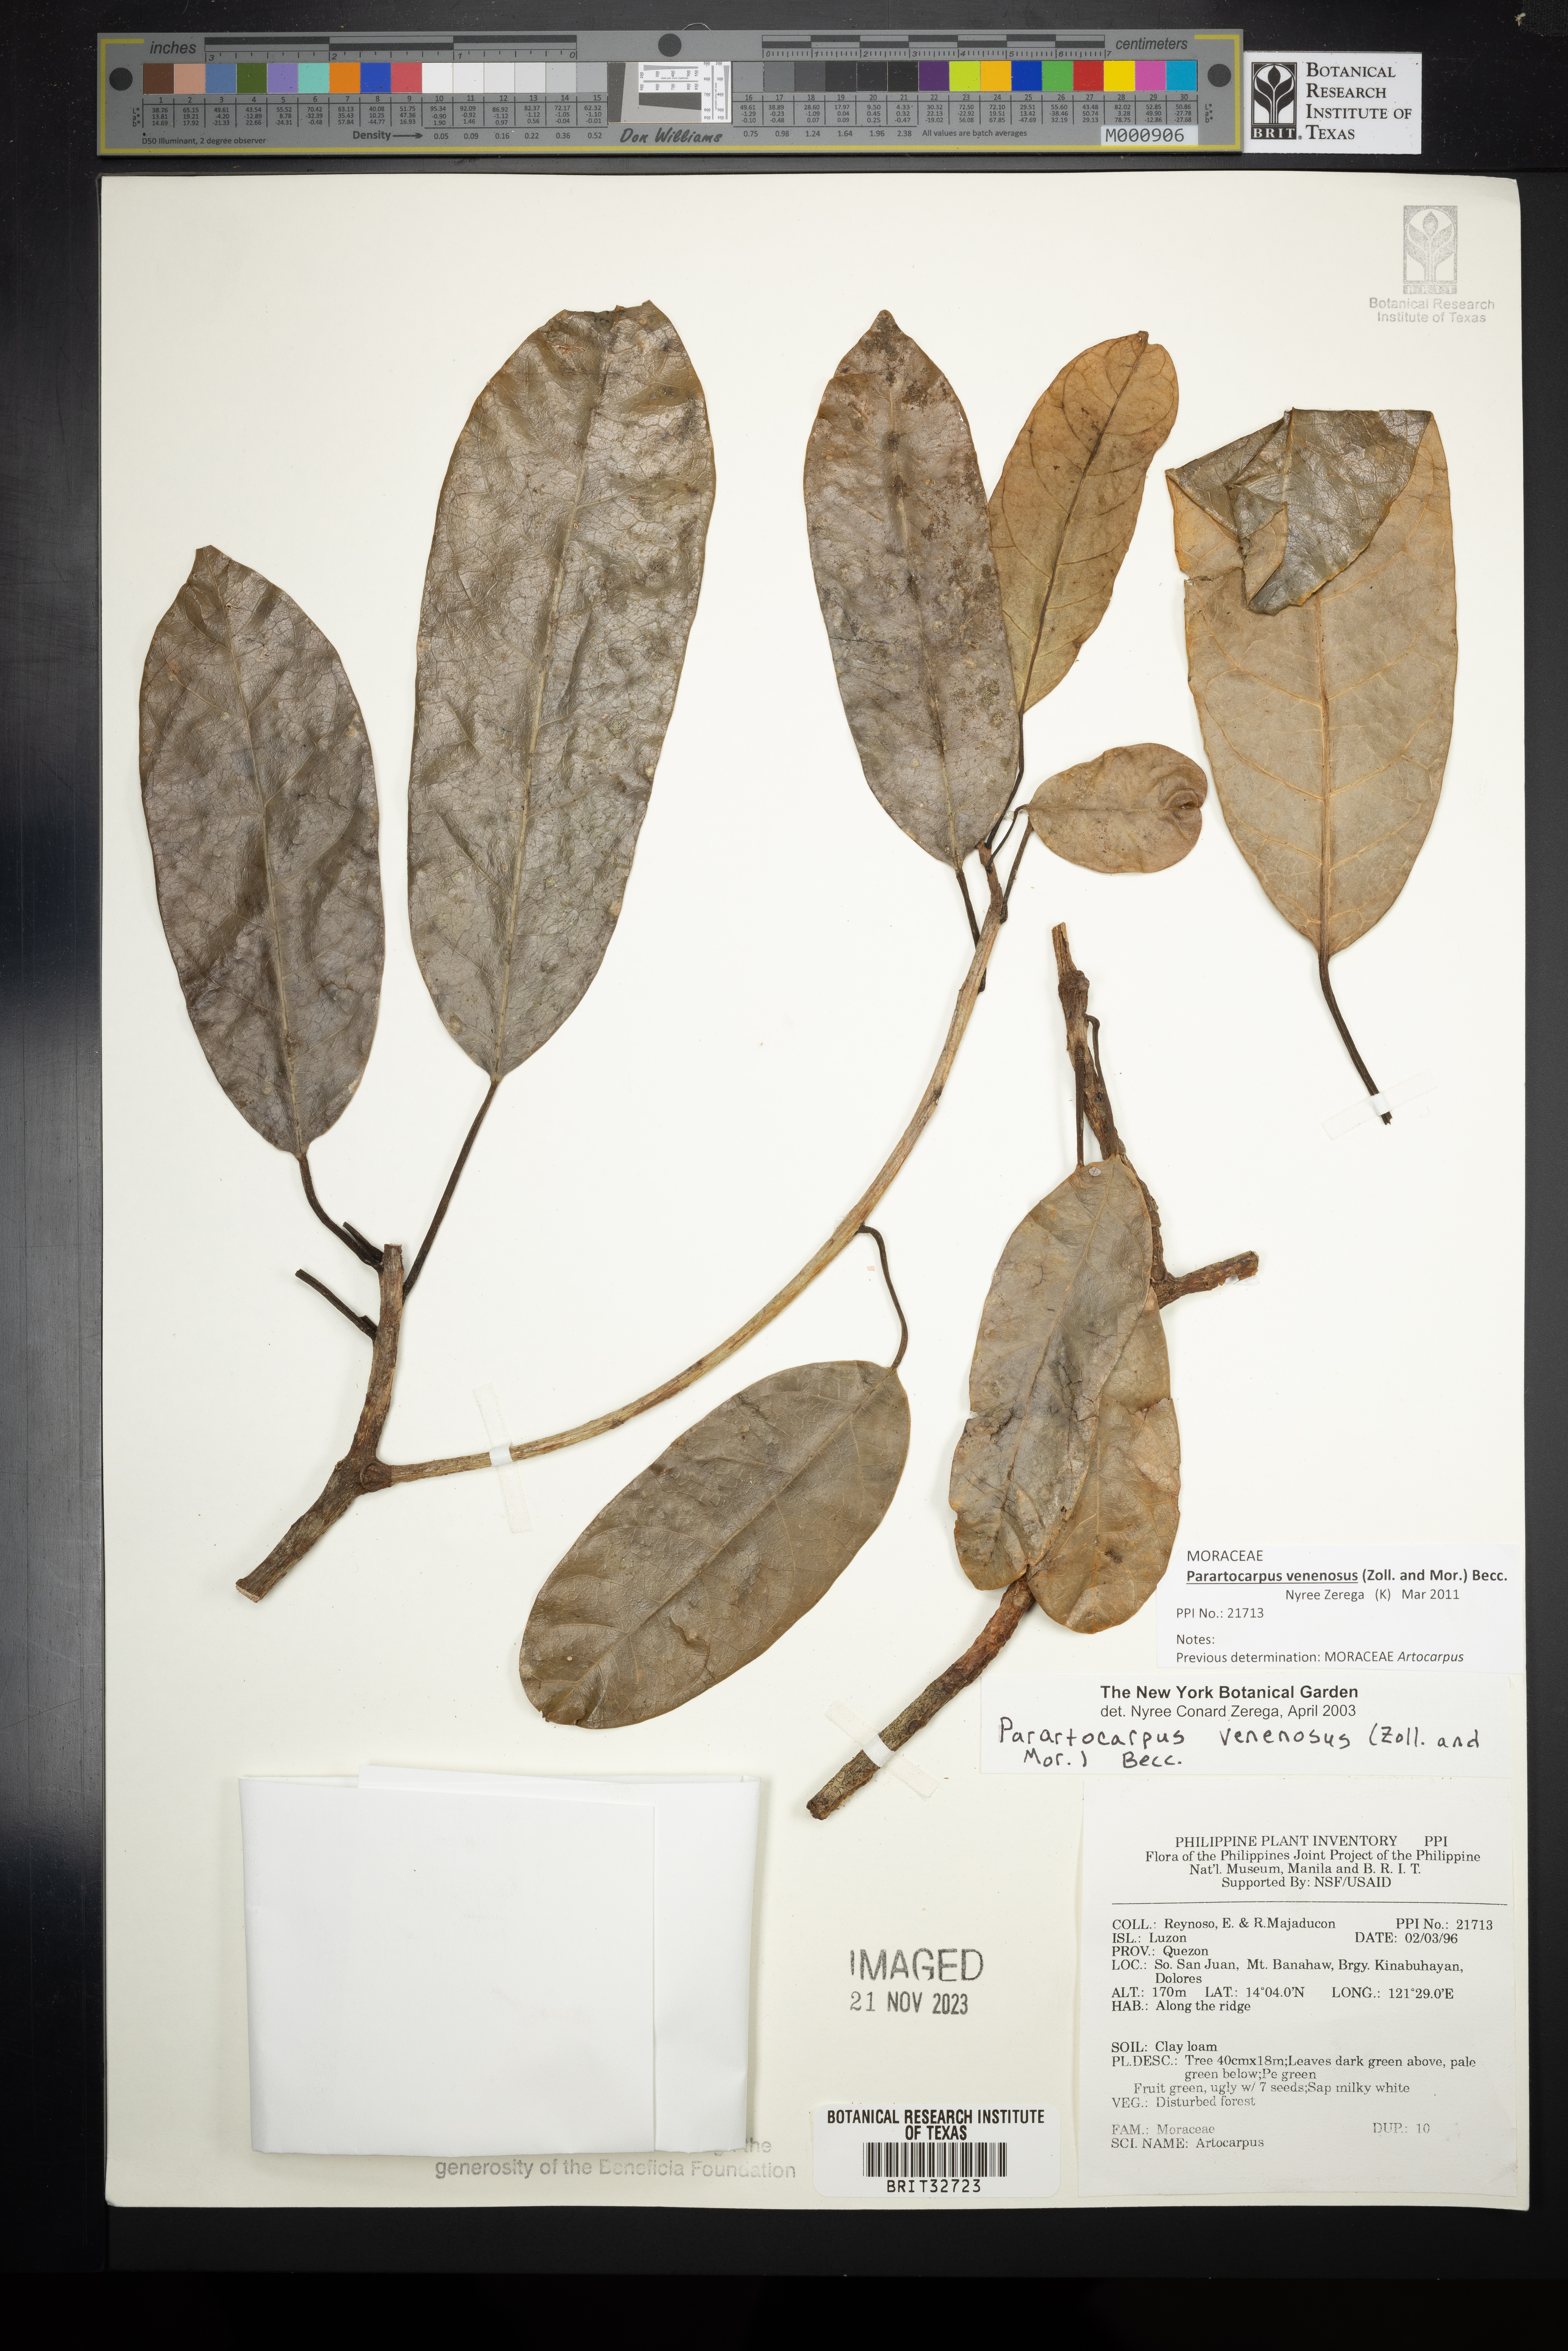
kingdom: Plantae
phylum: Tracheophyta
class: Magnoliopsida
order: Rosales
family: Moraceae
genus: Parartocarpus
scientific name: Parartocarpus venenosa
